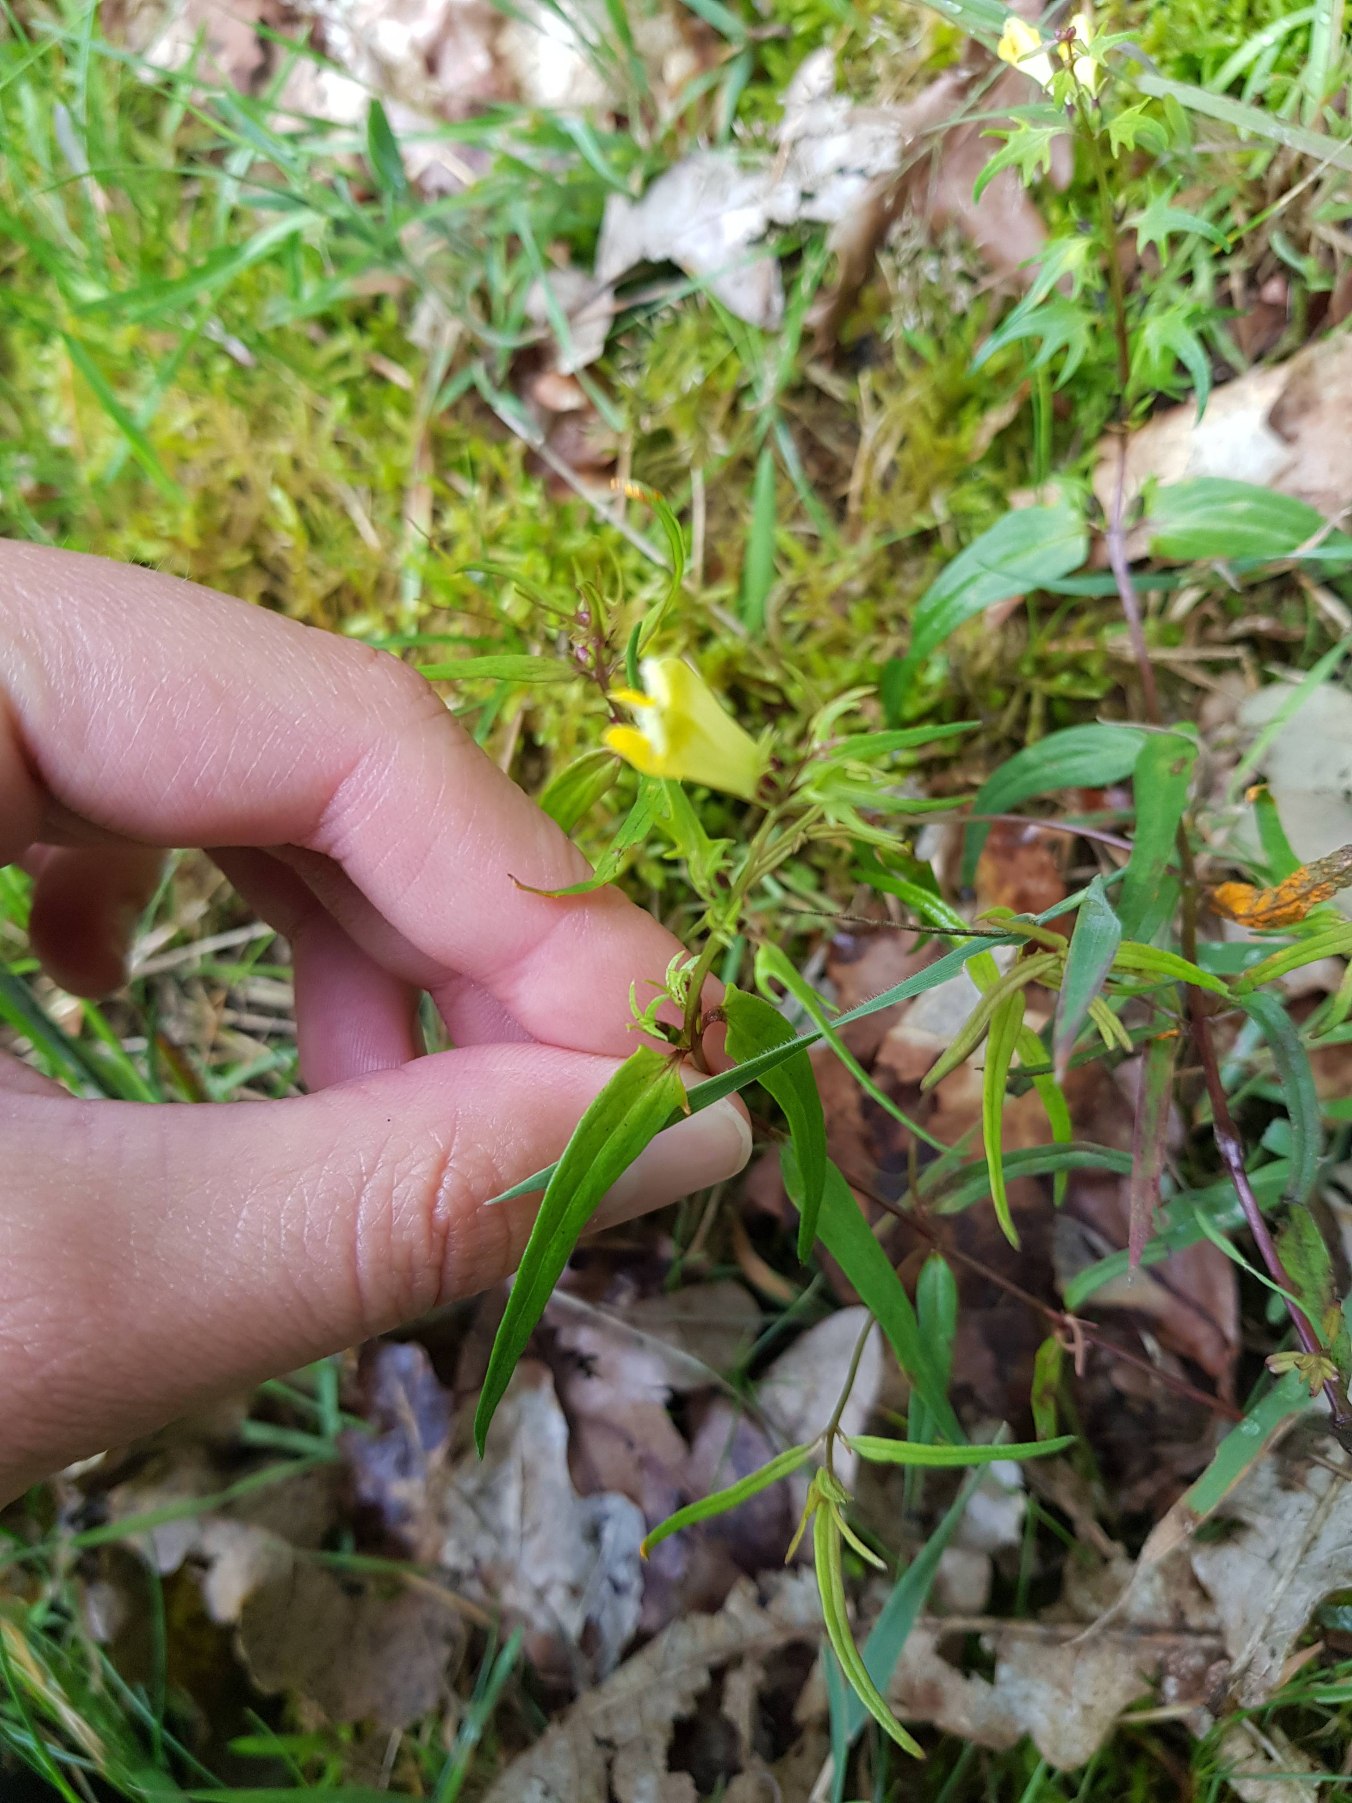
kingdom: Plantae
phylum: Tracheophyta
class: Magnoliopsida
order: Lamiales
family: Orobanchaceae
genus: Melampyrum
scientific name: Melampyrum pratense
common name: Almindelig kohvede
